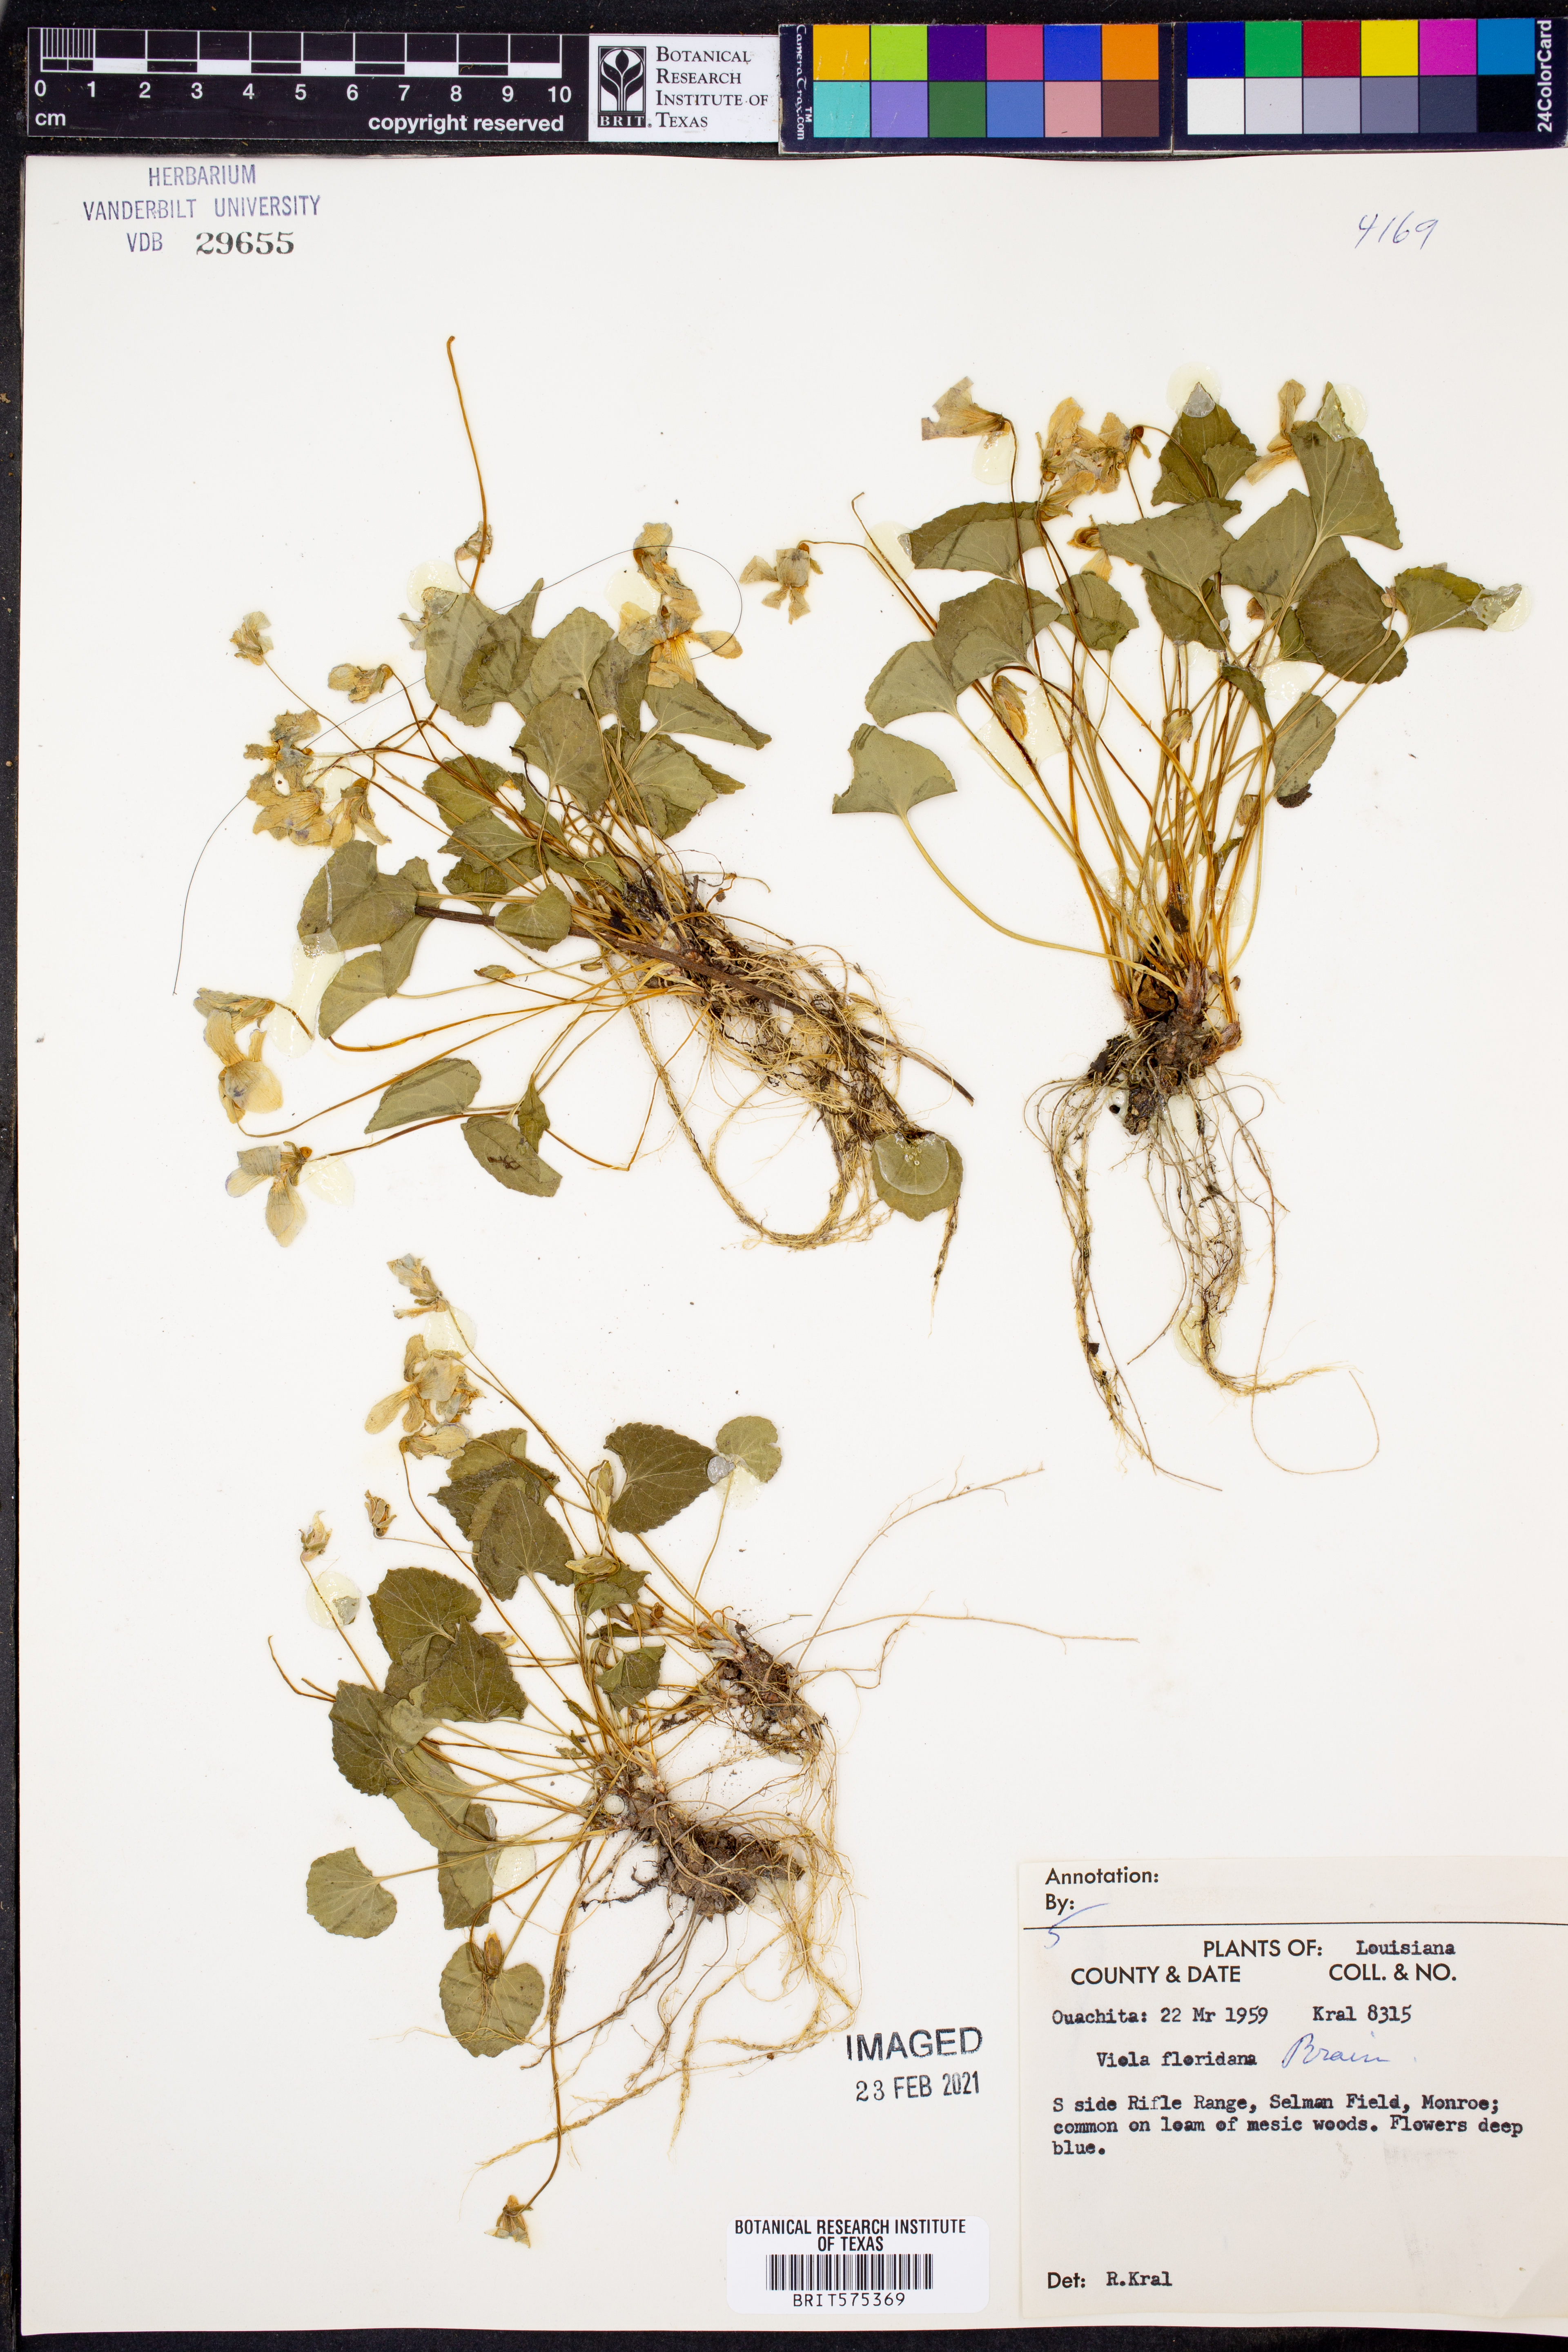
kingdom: Plantae
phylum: Tracheophyta
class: Magnoliopsida
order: Malpighiales
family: Violaceae
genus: Viola
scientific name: Viola floridana
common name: Florida violet
